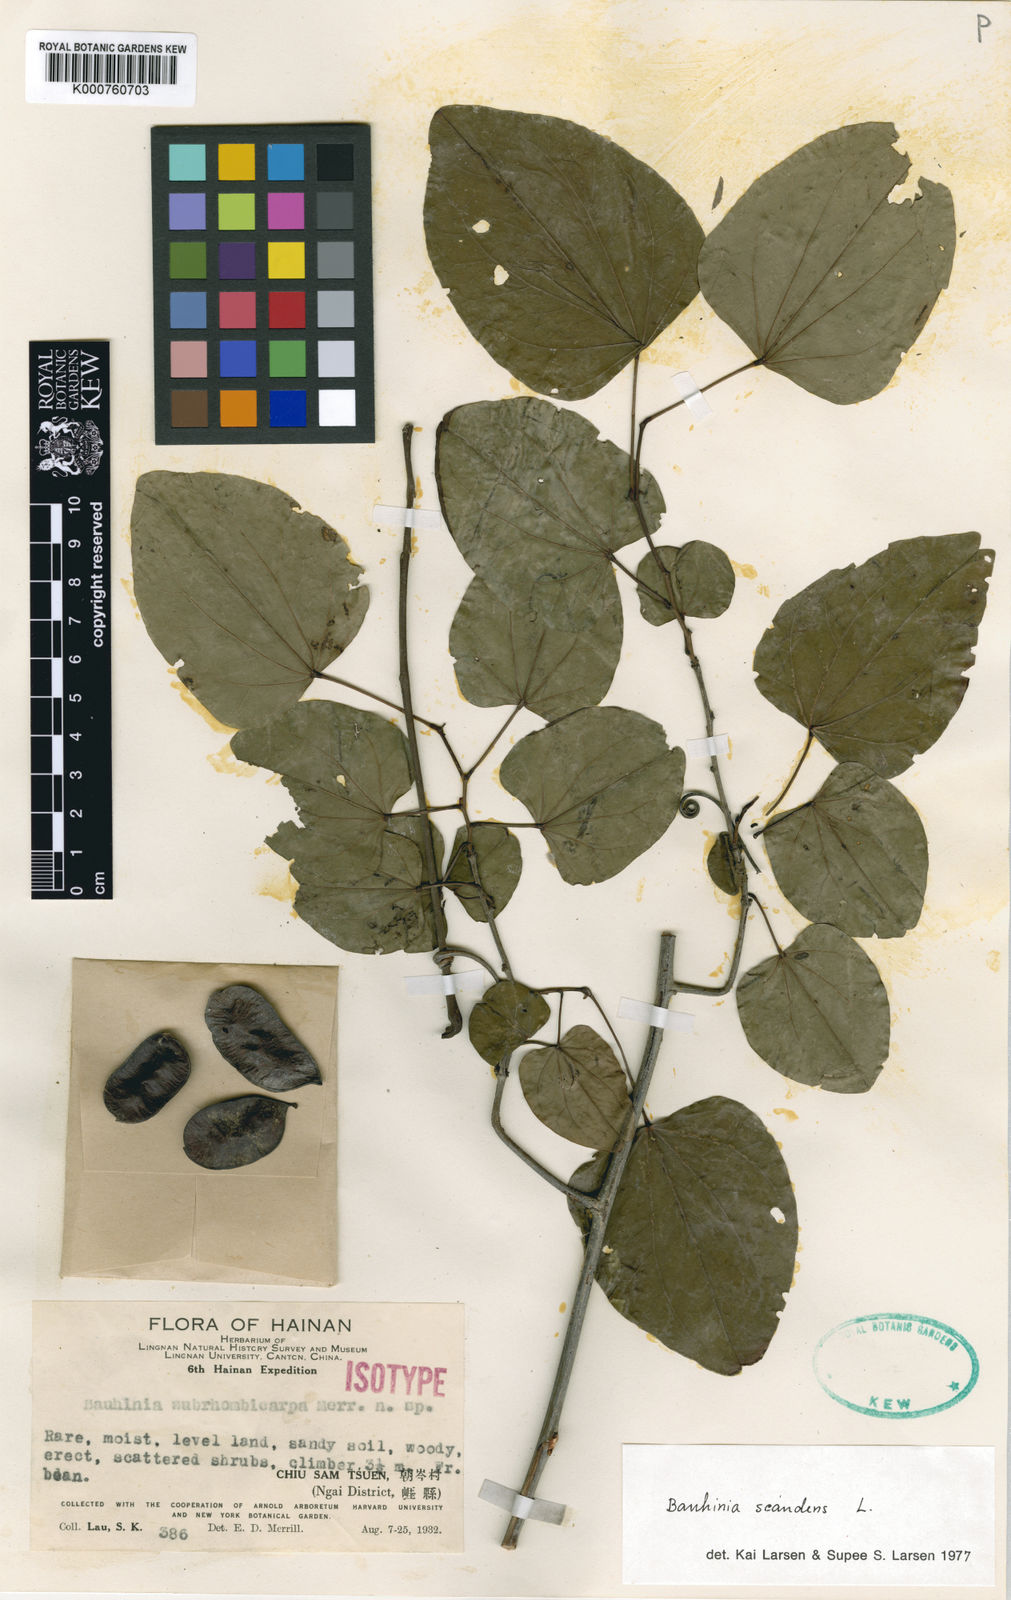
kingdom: Plantae
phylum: Tracheophyta
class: Magnoliopsida
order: Fabales
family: Fabaceae
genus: Phanera
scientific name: Phanera scandens
